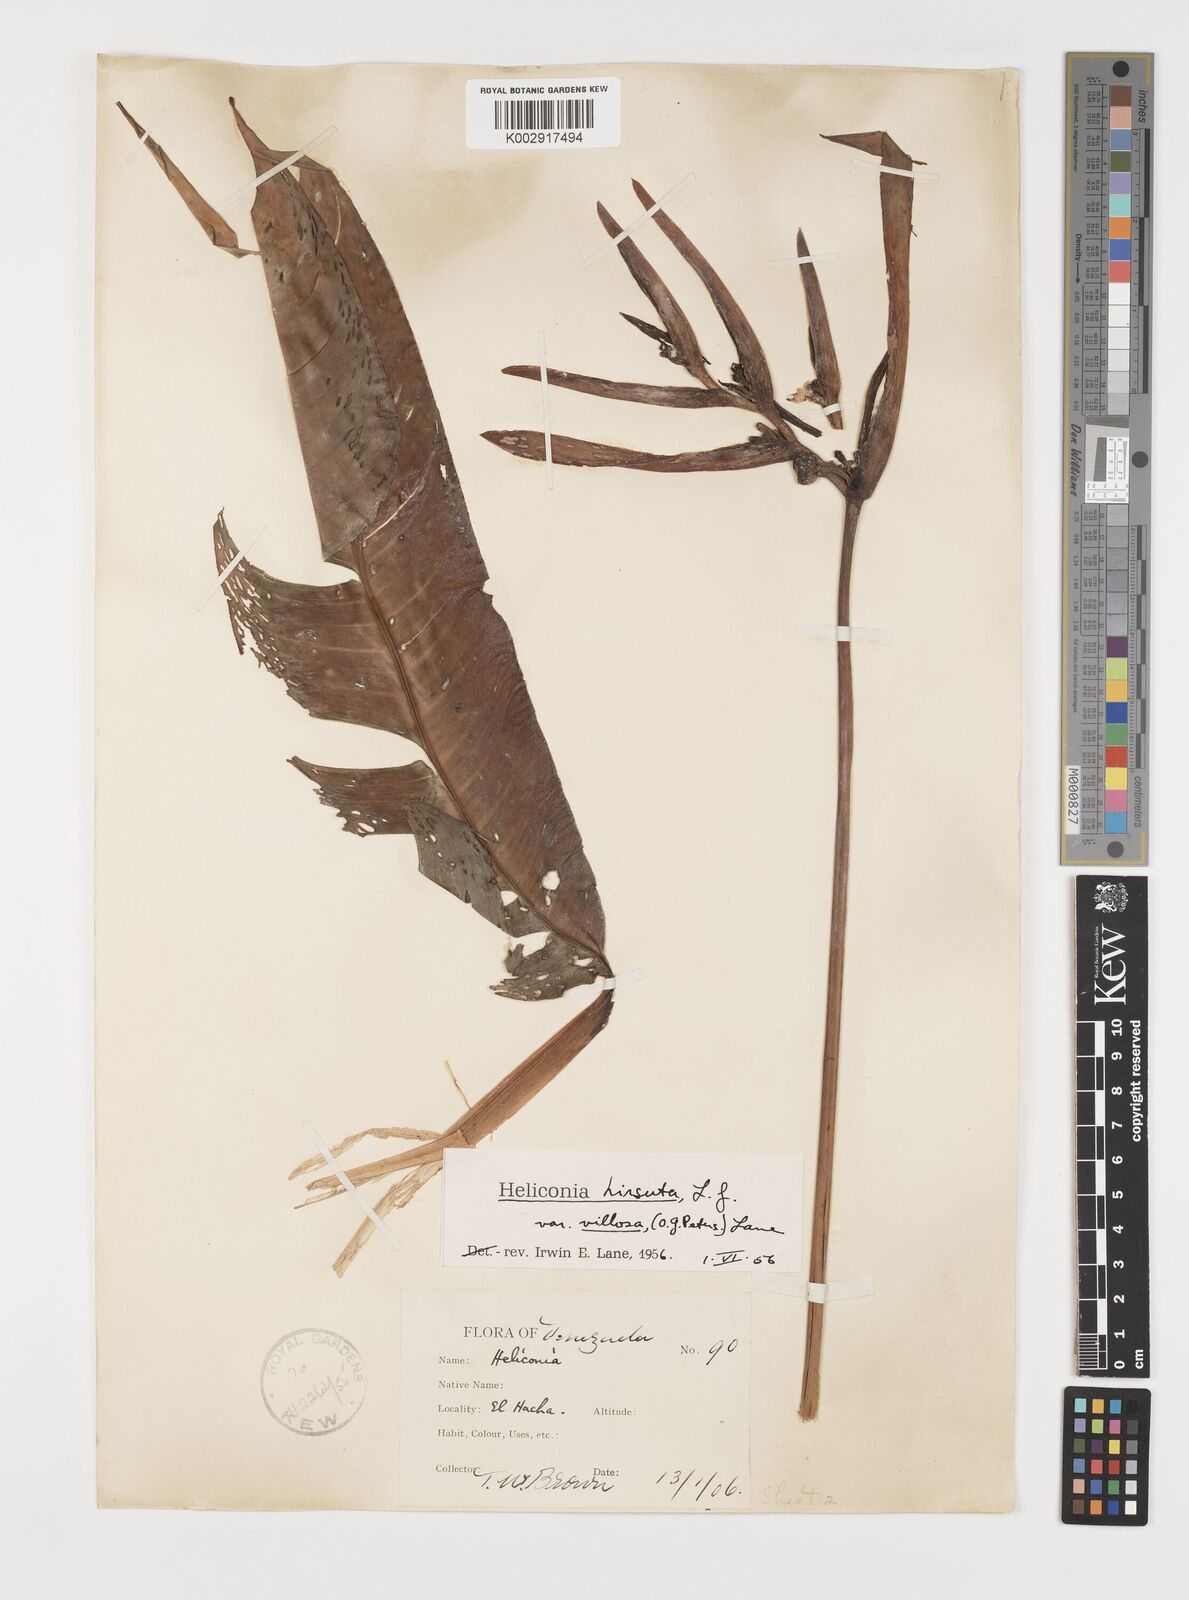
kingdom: Plantae
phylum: Tracheophyta
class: Liliopsida
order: Zingiberales
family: Heliconiaceae
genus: Heliconia
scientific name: Heliconia hirsuta
